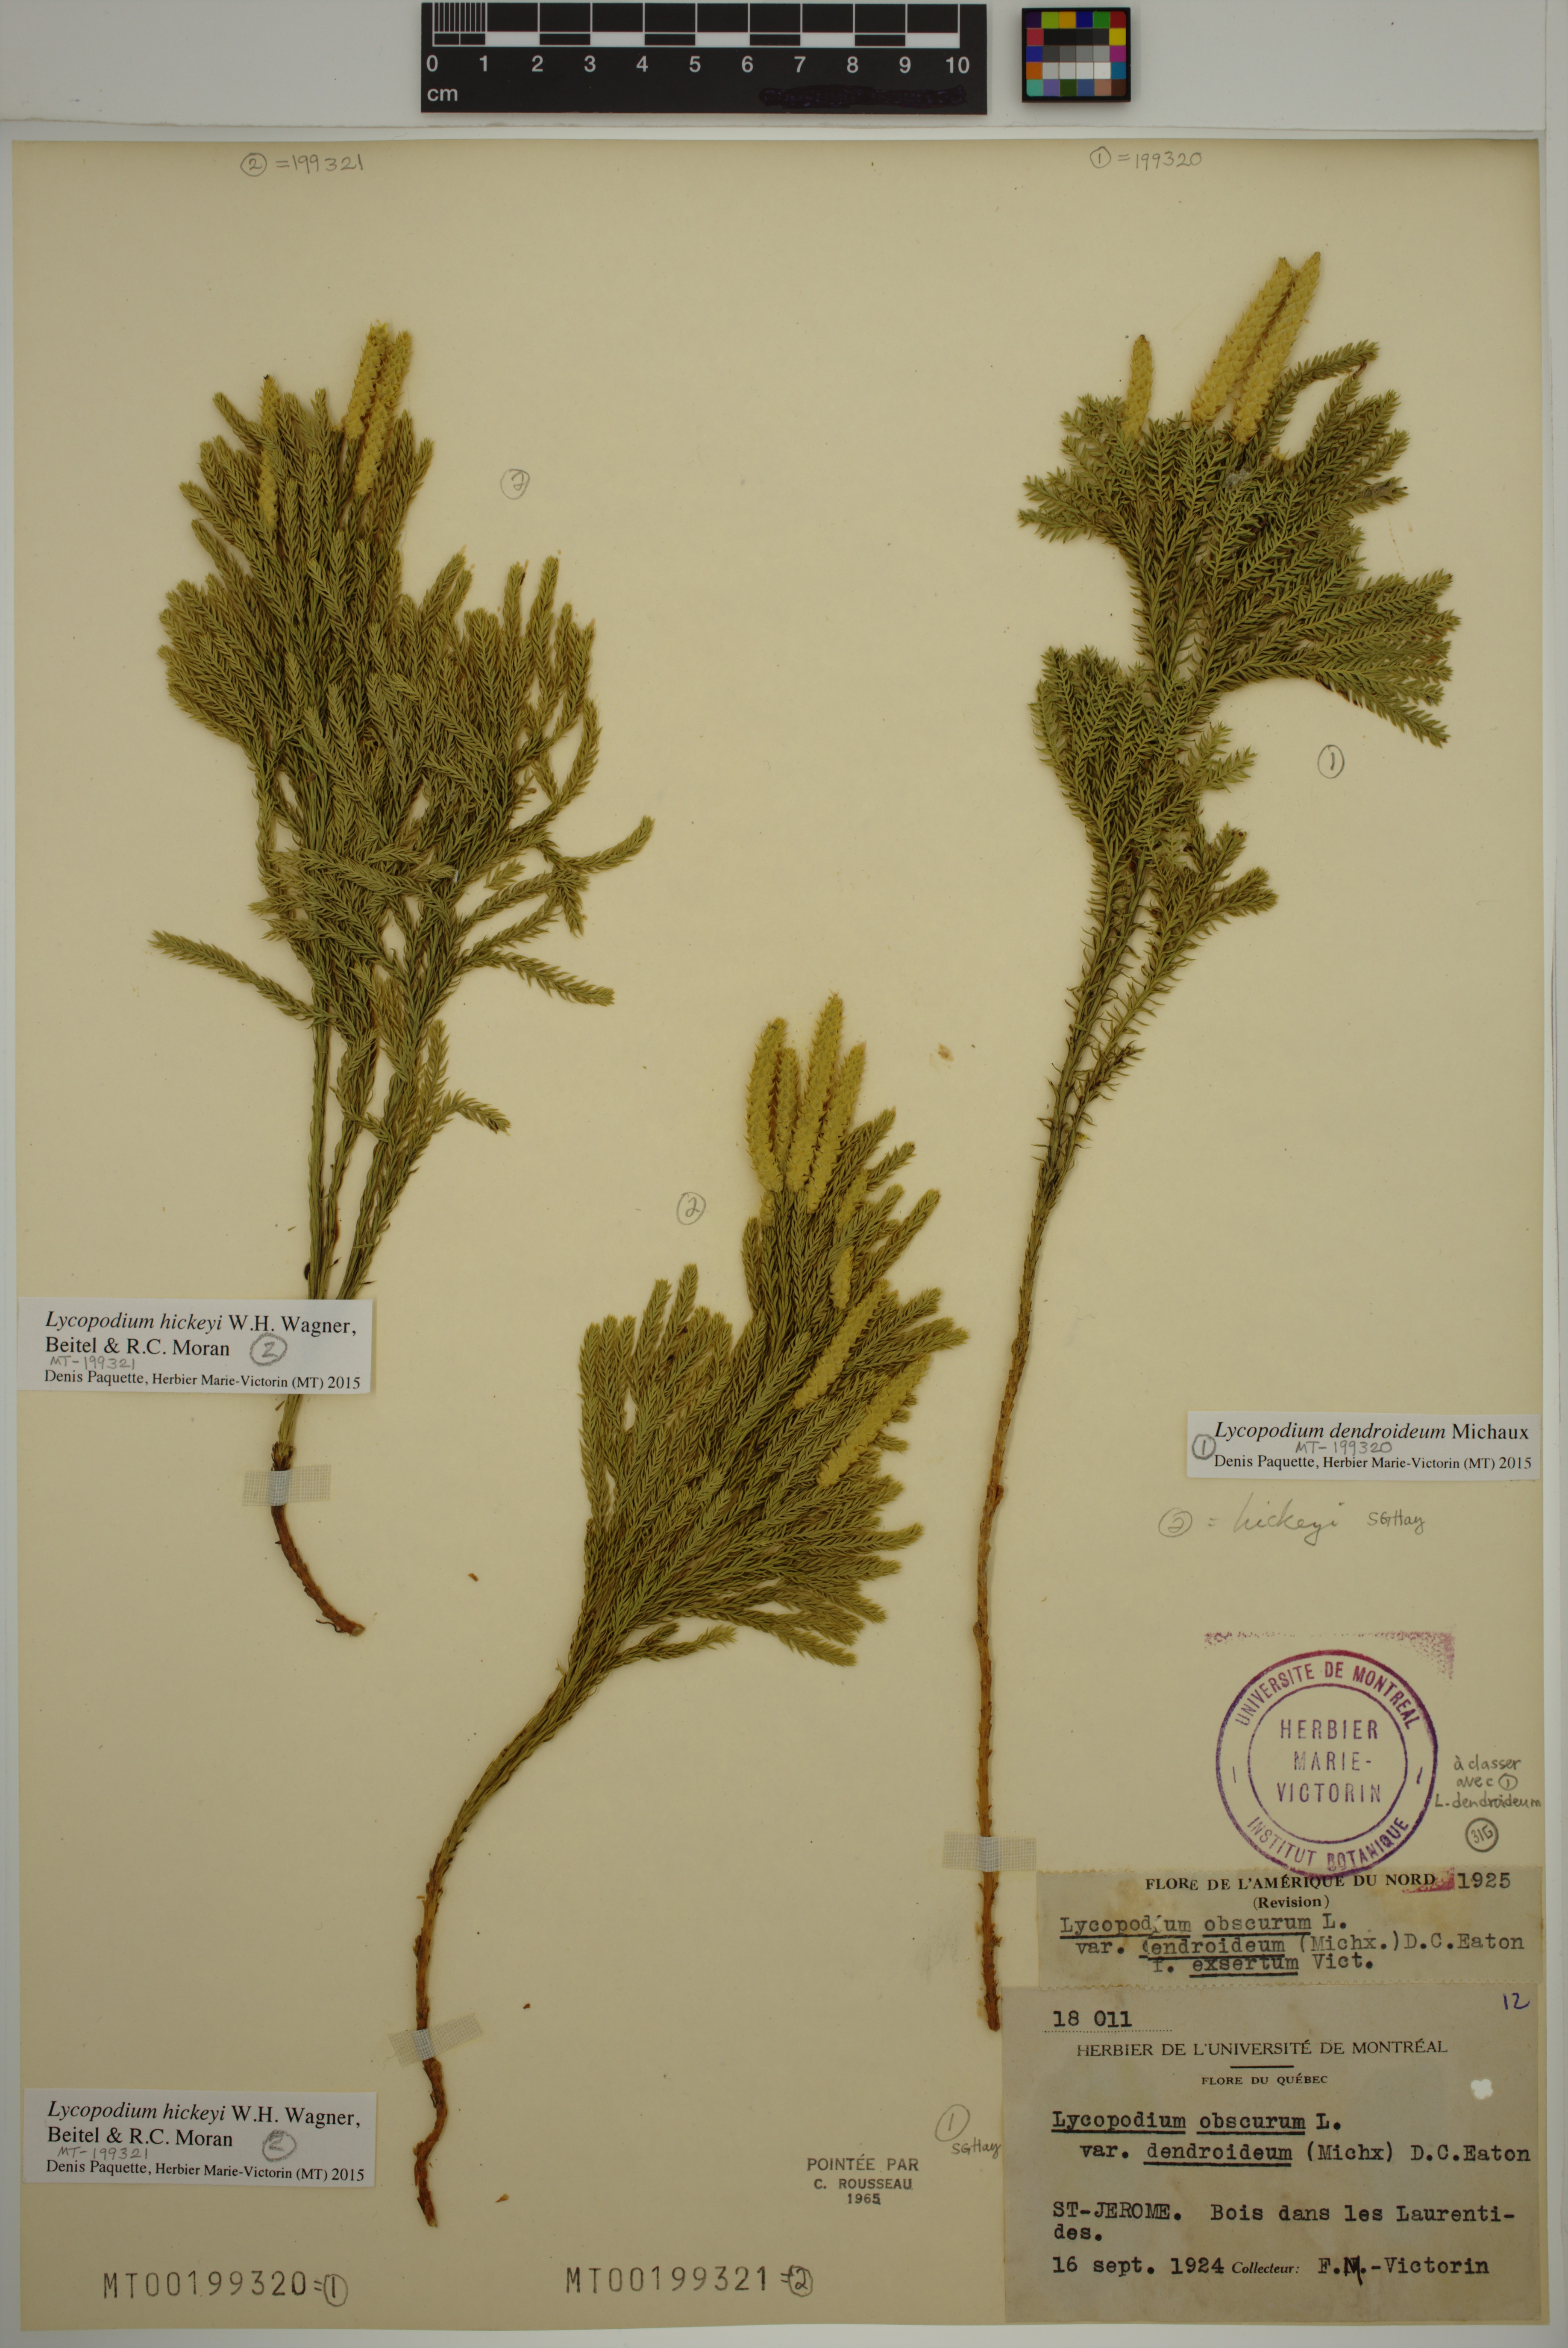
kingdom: Plantae
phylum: Tracheophyta
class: Lycopodiopsida
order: Lycopodiales
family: Lycopodiaceae
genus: Dendrolycopodium
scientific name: Dendrolycopodium dendroideum
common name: Northern tree-clubmoss
